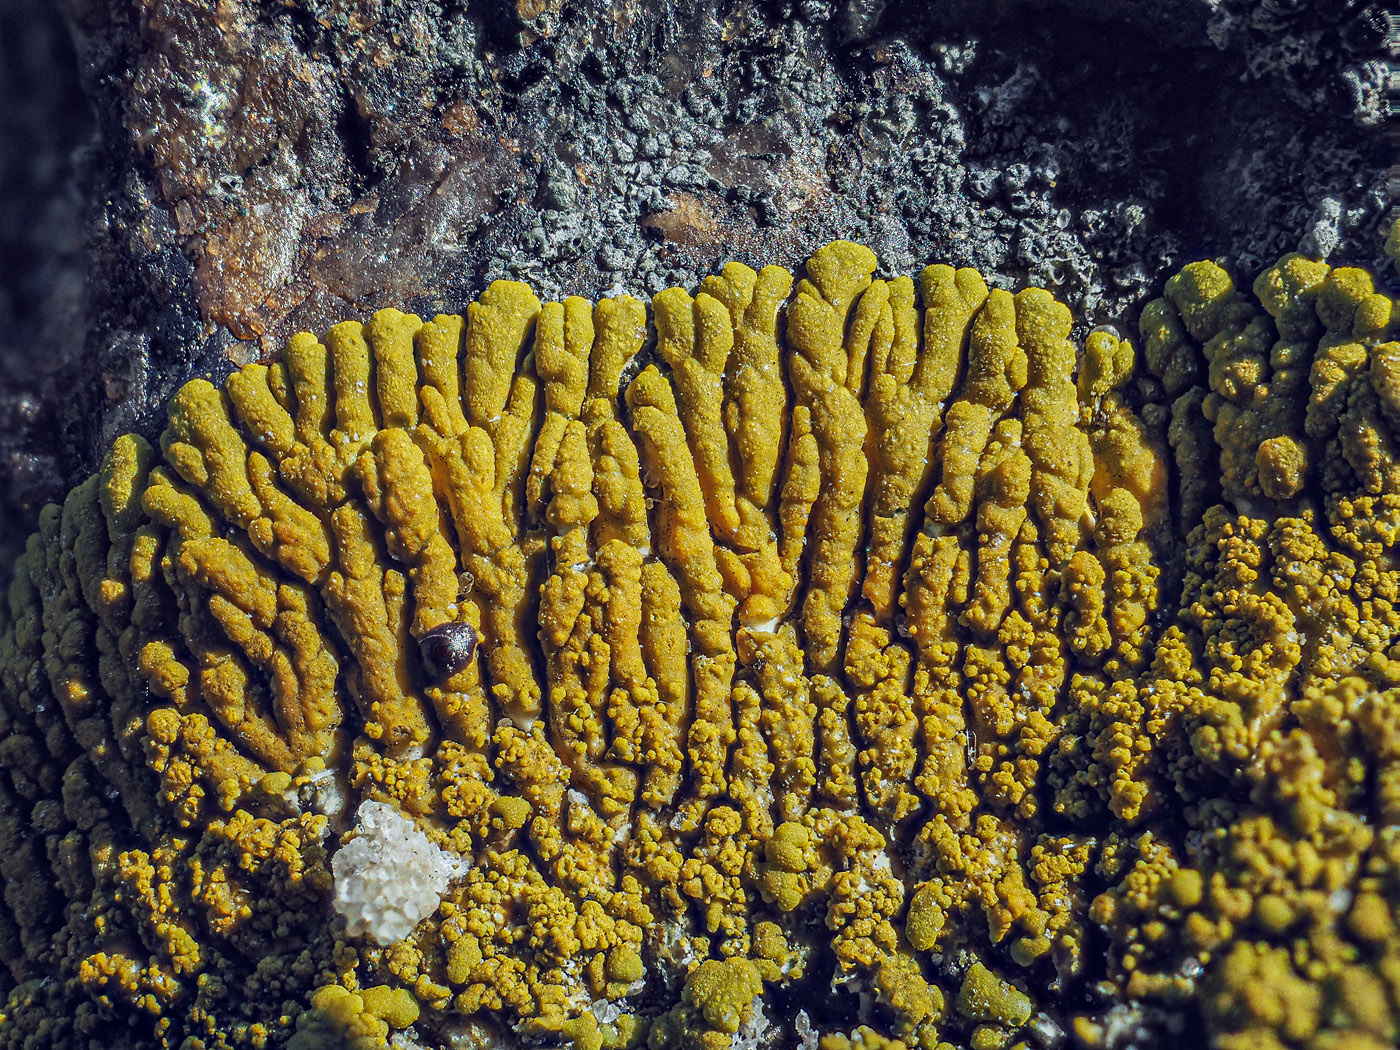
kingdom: Fungi
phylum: Ascomycota
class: Lecanoromycetes
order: Teloschistales
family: Teloschistaceae
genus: Verrucoplaca
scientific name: Verrucoplaca verruculifera
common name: koldkyst-orangelav
